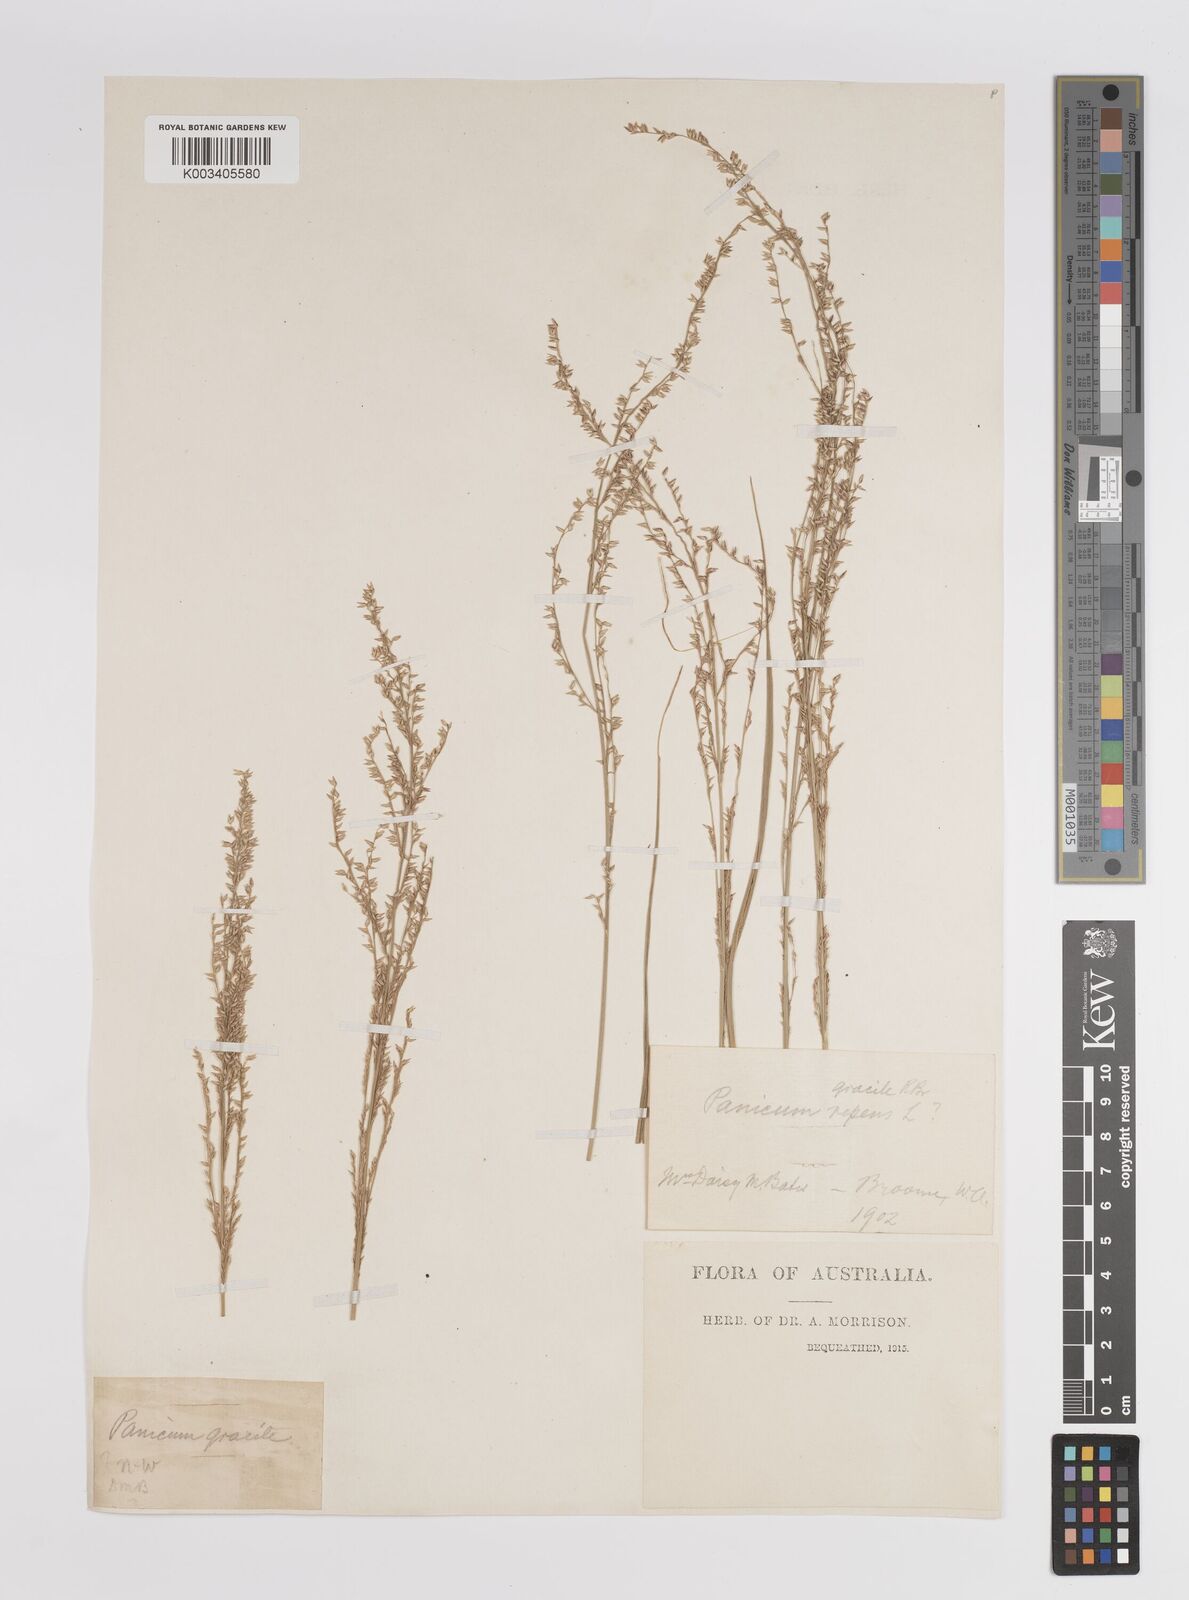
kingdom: Plantae
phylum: Tracheophyta
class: Liliopsida
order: Poales
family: Poaceae
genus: Panicum
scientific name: Panicum
